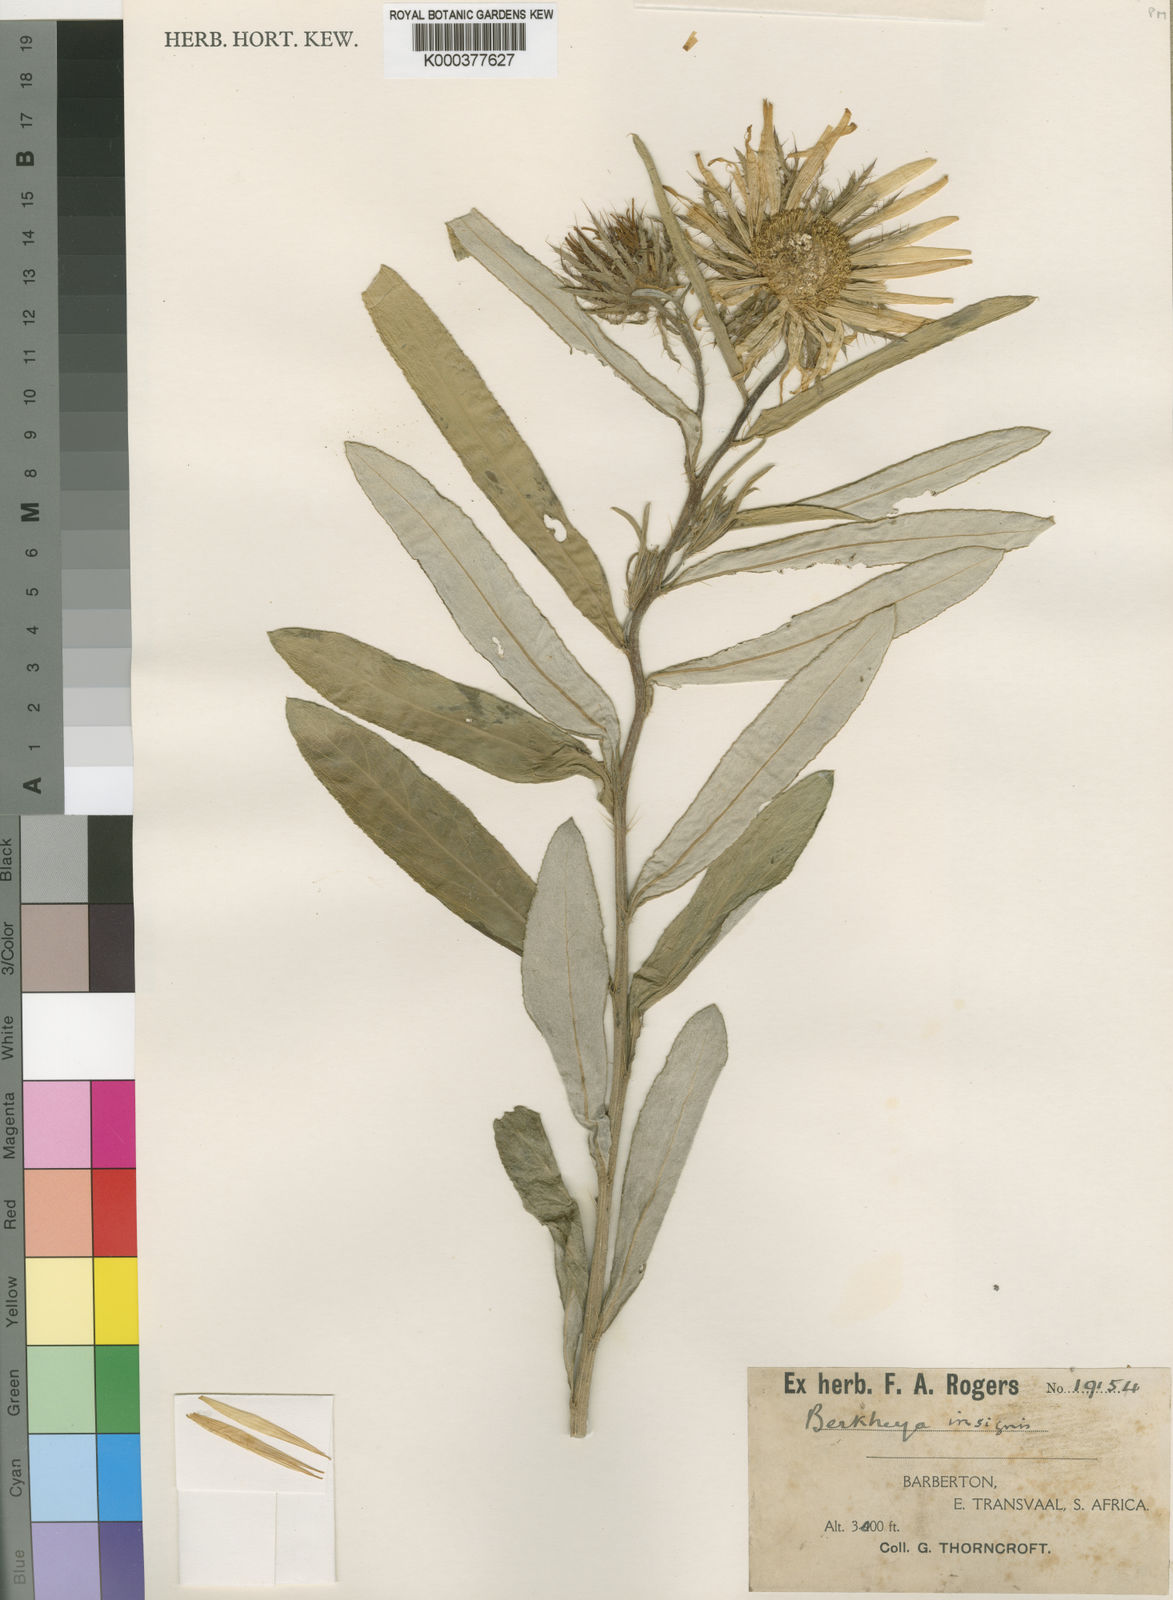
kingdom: Plantae
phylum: Tracheophyta
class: Magnoliopsida
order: Asterales
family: Asteraceae
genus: Berkheya
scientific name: Berkheya
